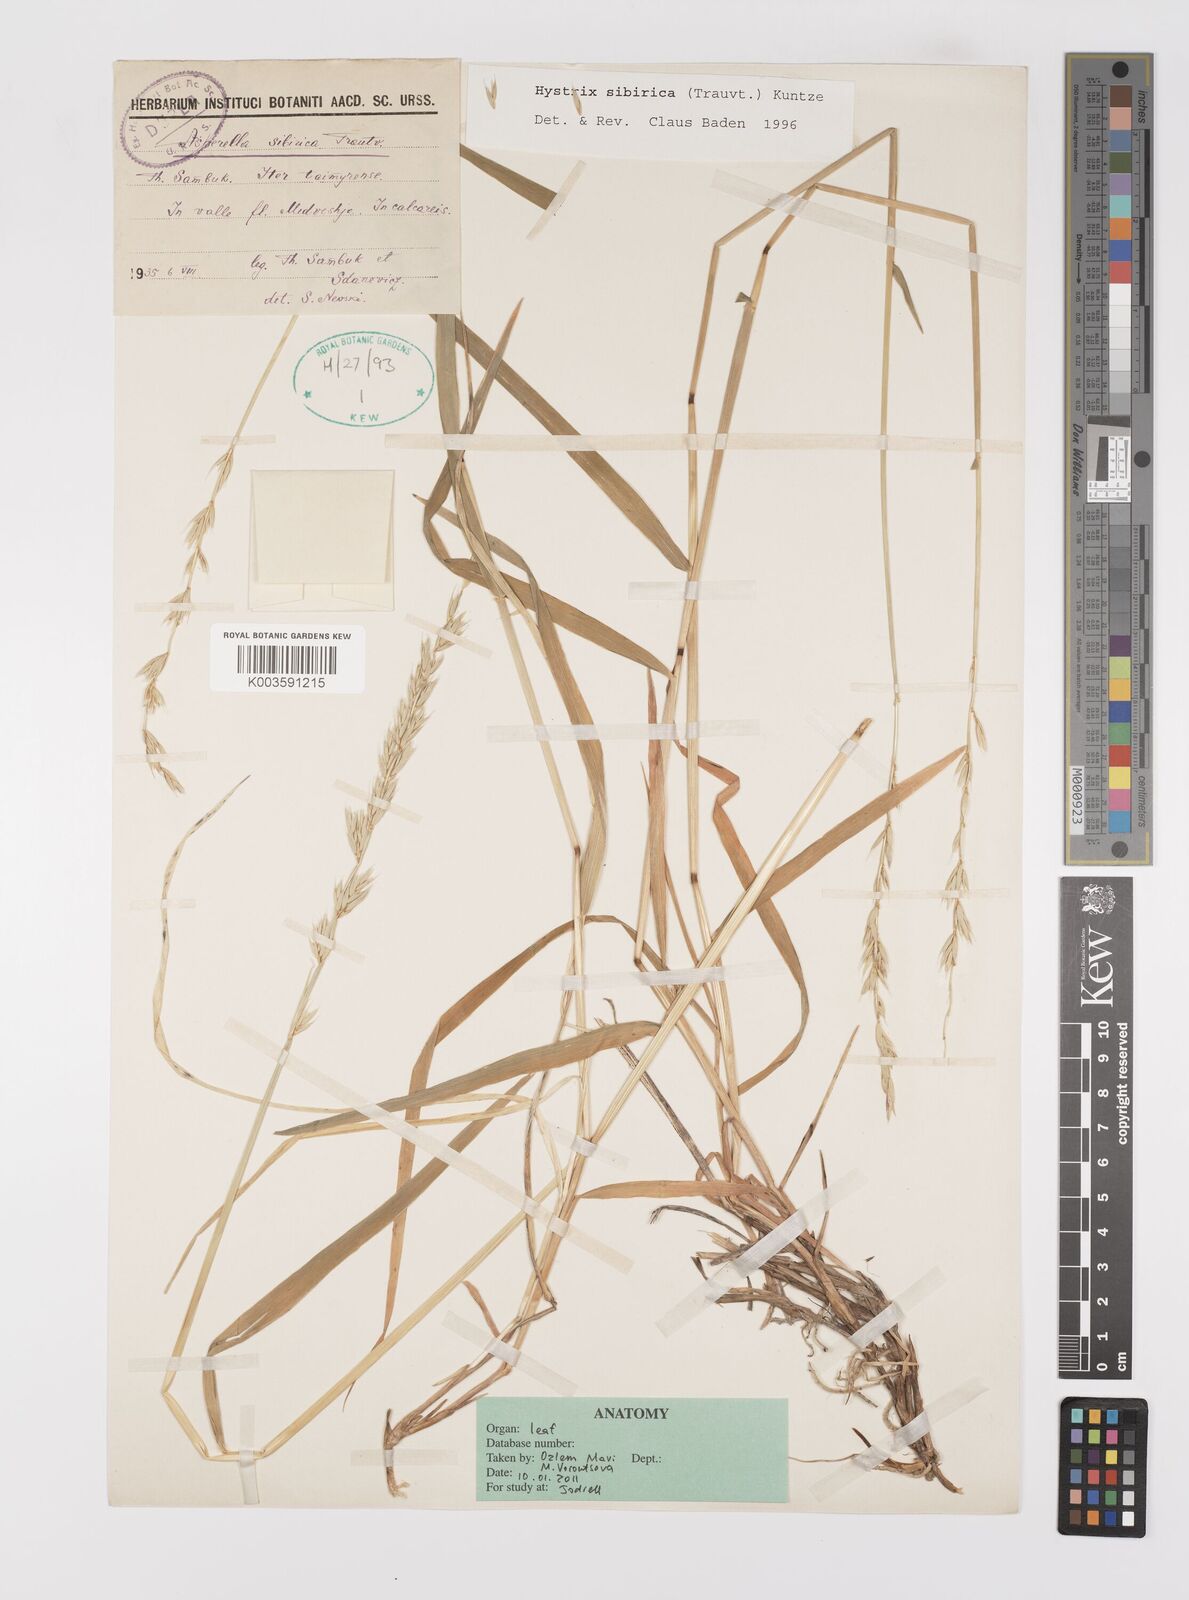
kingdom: Plantae
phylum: Tracheophyta
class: Liliopsida
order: Poales
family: Poaceae
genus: Leymus
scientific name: Leymus sibiricus
